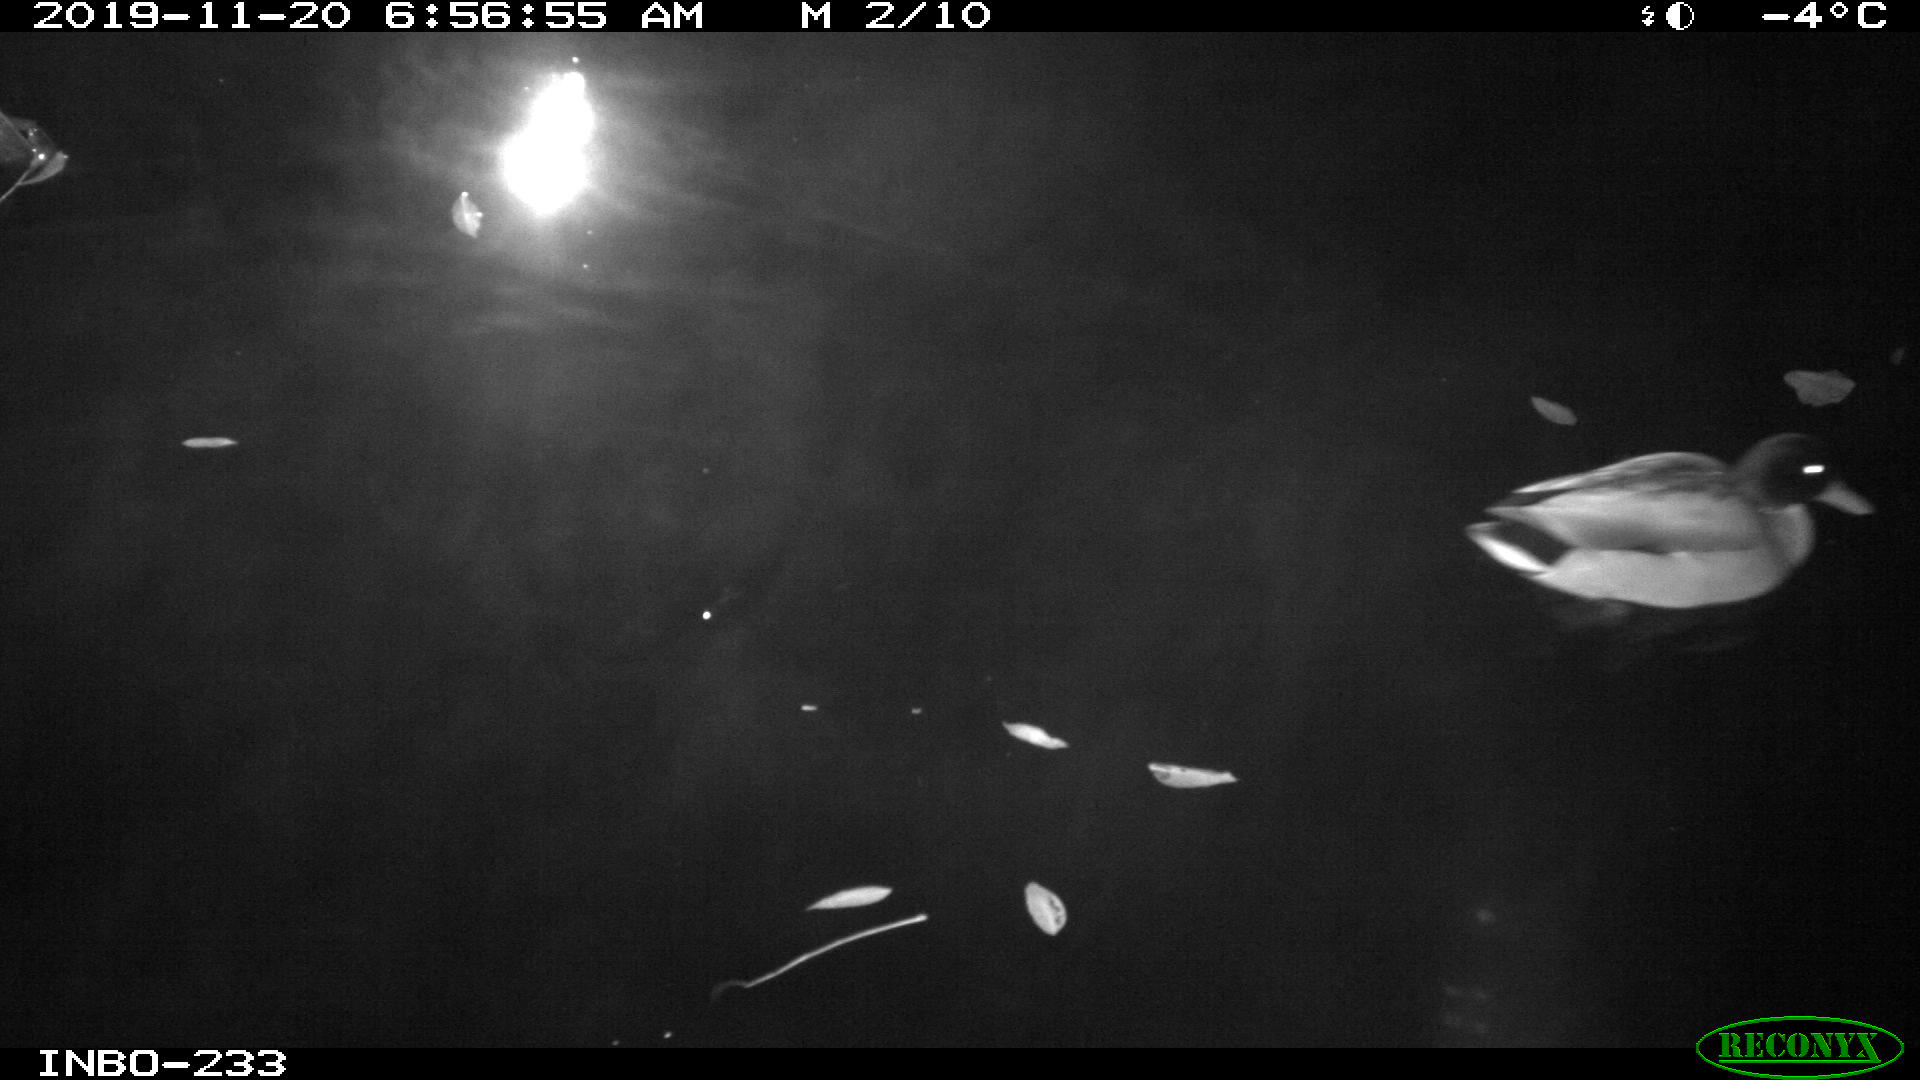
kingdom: Animalia
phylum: Chordata
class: Aves
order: Anseriformes
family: Anatidae
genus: Anas
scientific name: Anas platyrhynchos
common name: Mallard
